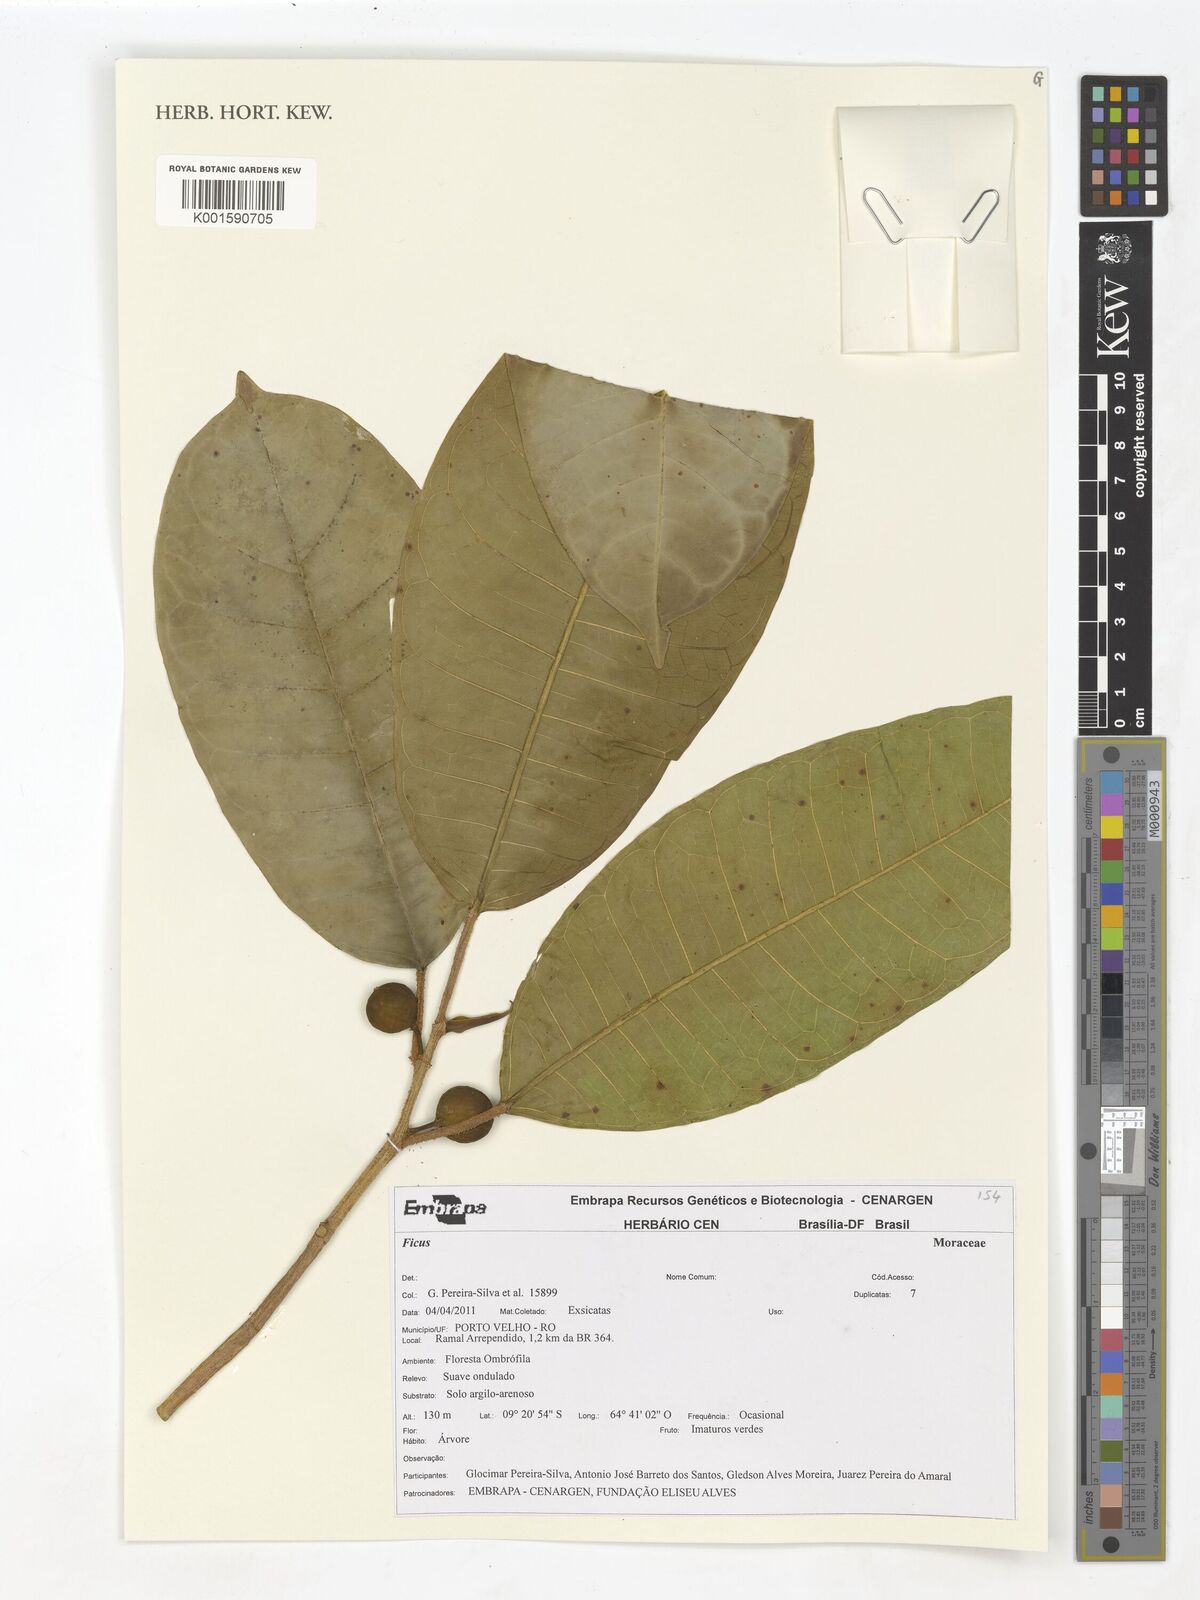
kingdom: Plantae
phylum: Tracheophyta
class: Magnoliopsida
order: Rosales
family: Moraceae
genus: Ficus
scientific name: Ficus
